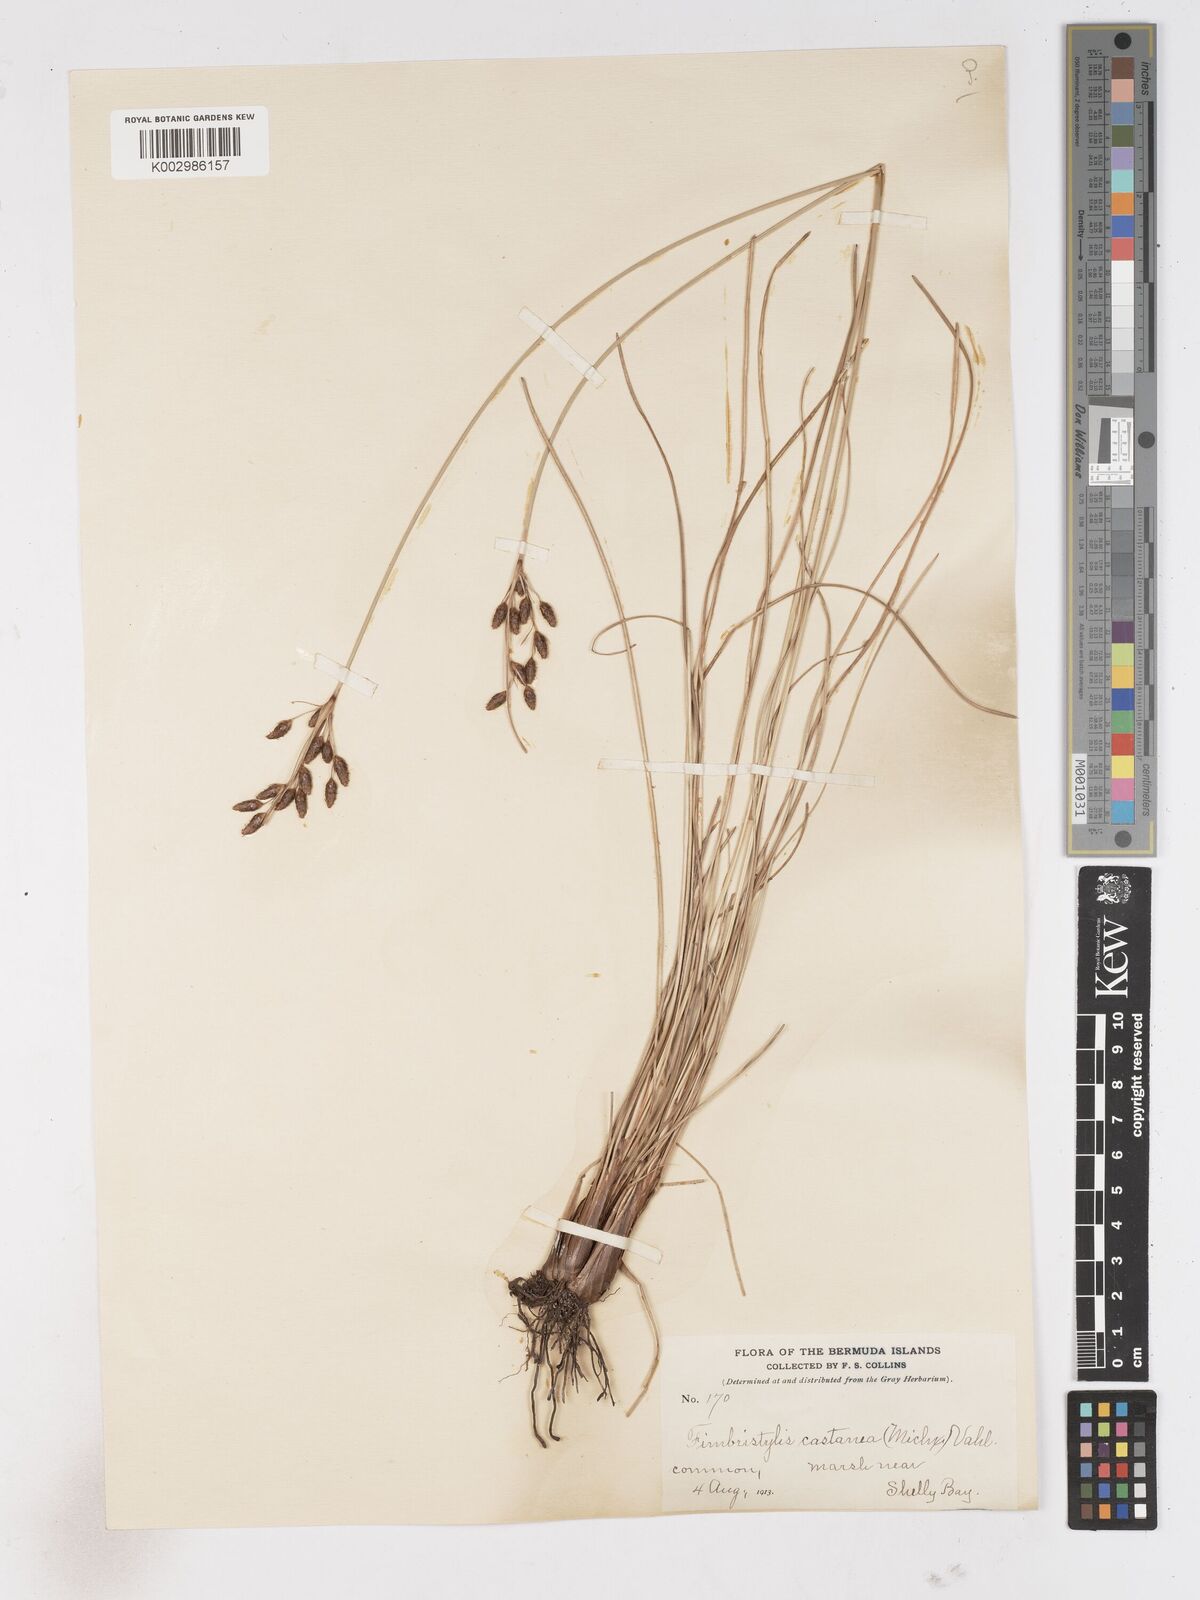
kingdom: Plantae
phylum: Tracheophyta
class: Liliopsida
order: Poales
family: Cyperaceae
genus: Fimbristylis
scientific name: Fimbristylis spadicea
